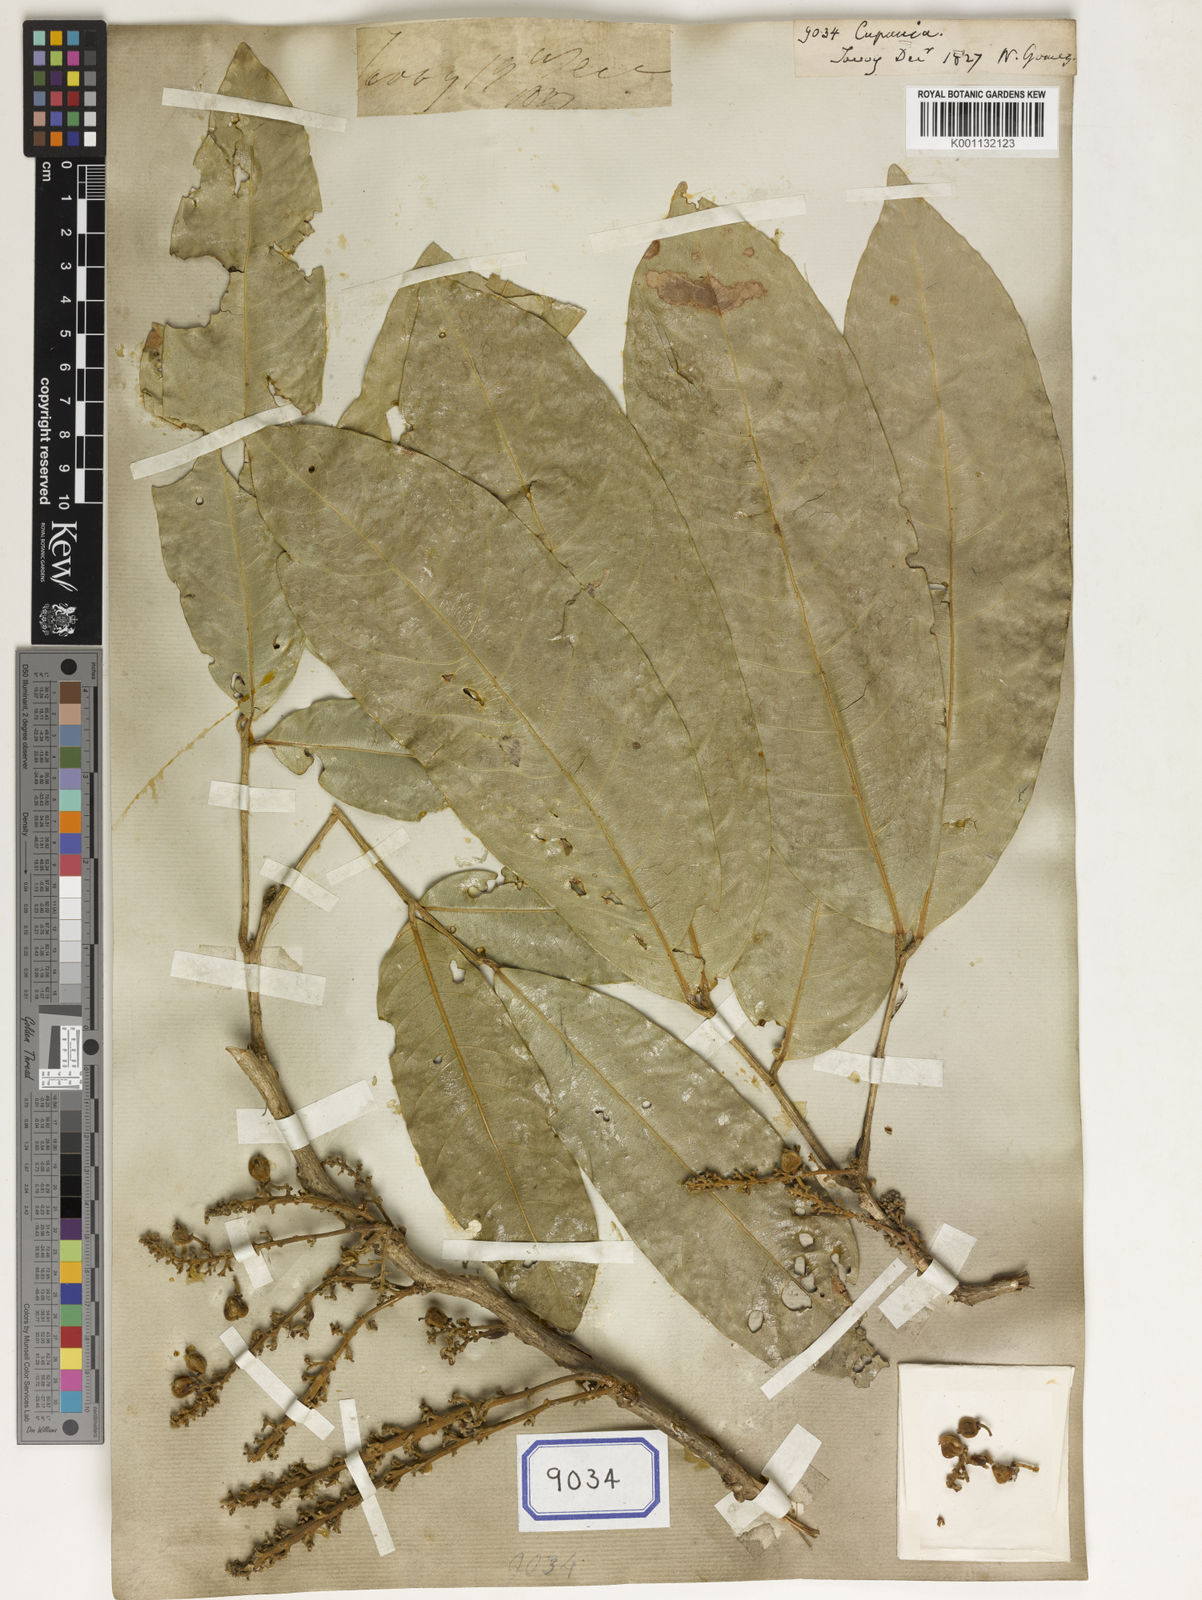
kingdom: Plantae
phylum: Tracheophyta
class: Magnoliopsida
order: Sapindales
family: Sapindaceae
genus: Cupania
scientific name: Cupania
